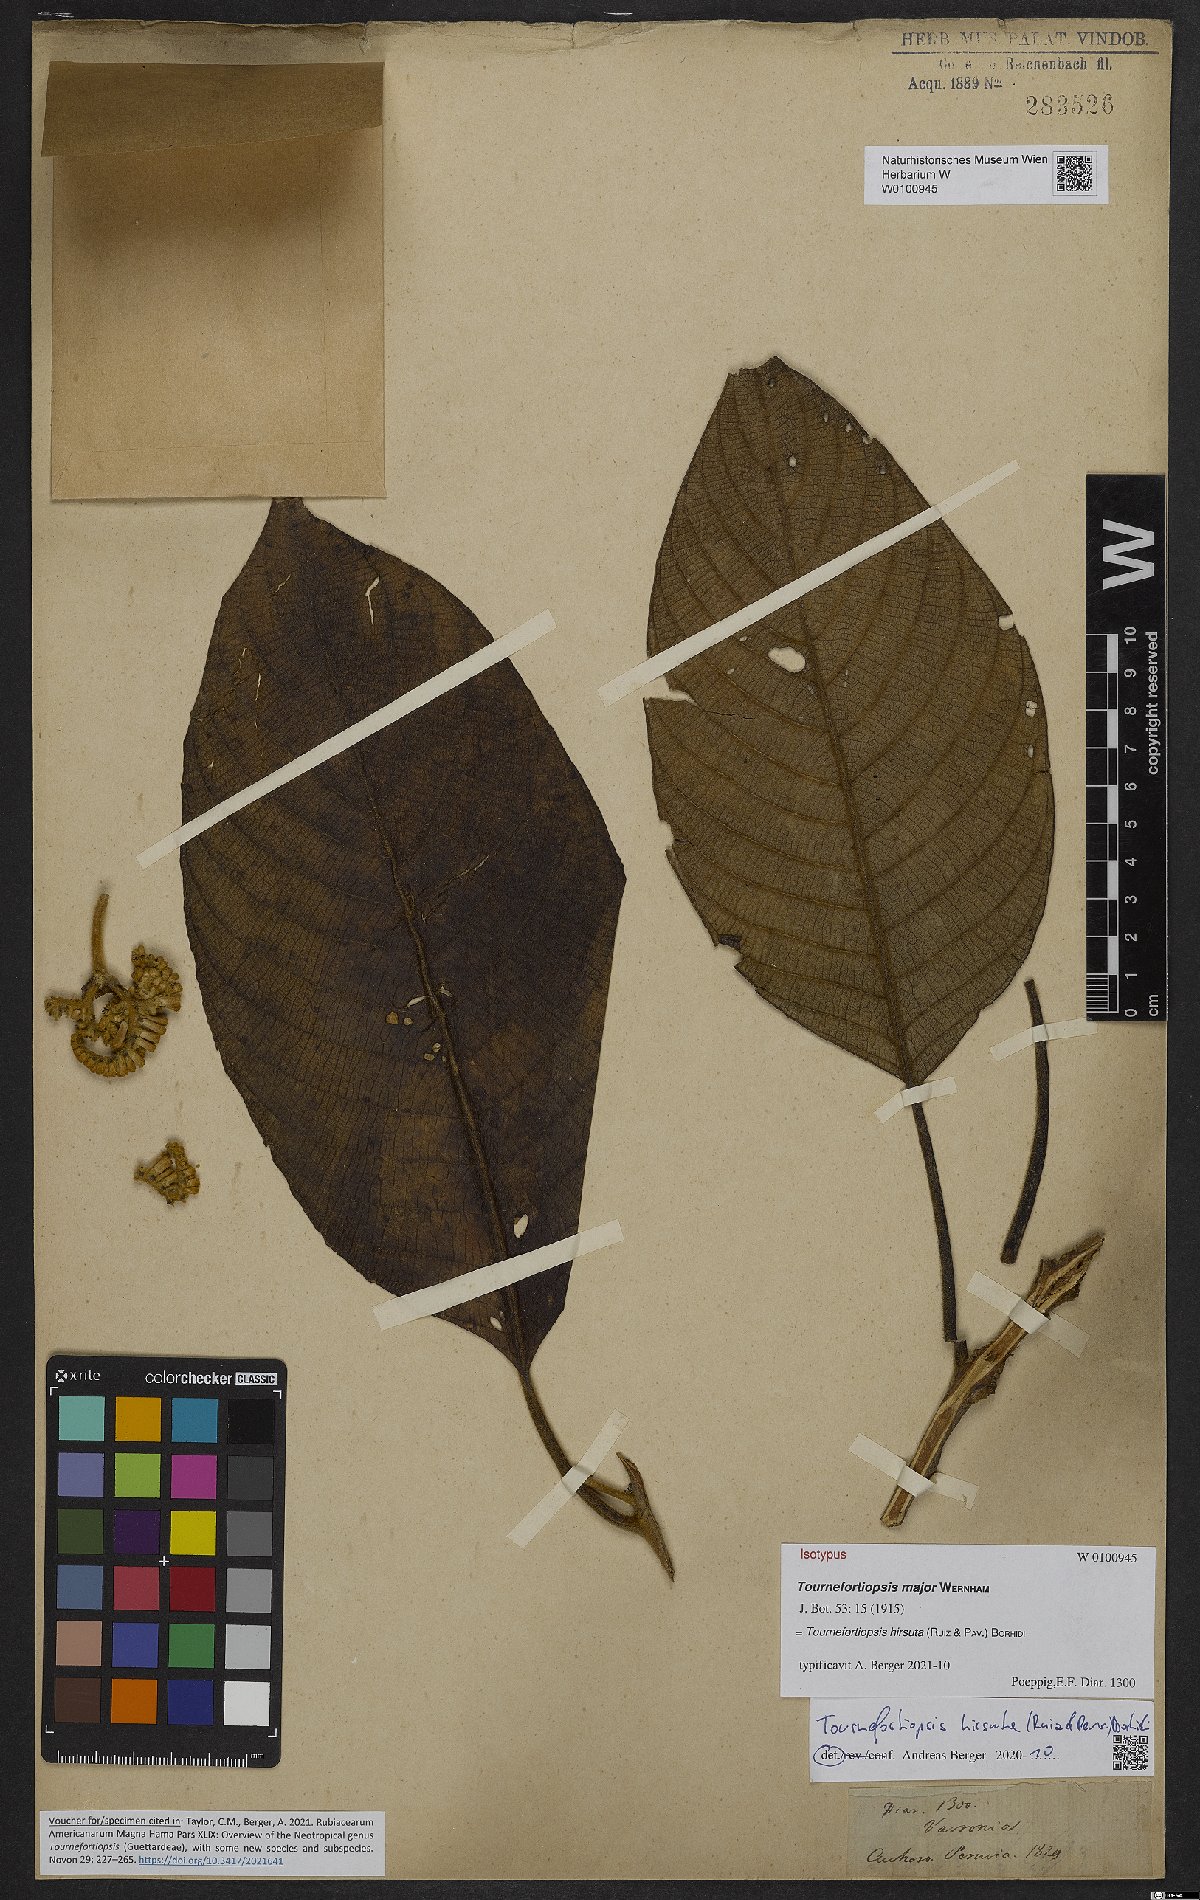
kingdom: Plantae
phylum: Tracheophyta
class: Magnoliopsida
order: Gentianales
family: Rubiaceae
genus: Tournefortiopsis
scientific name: Tournefortiopsis hirsuta
